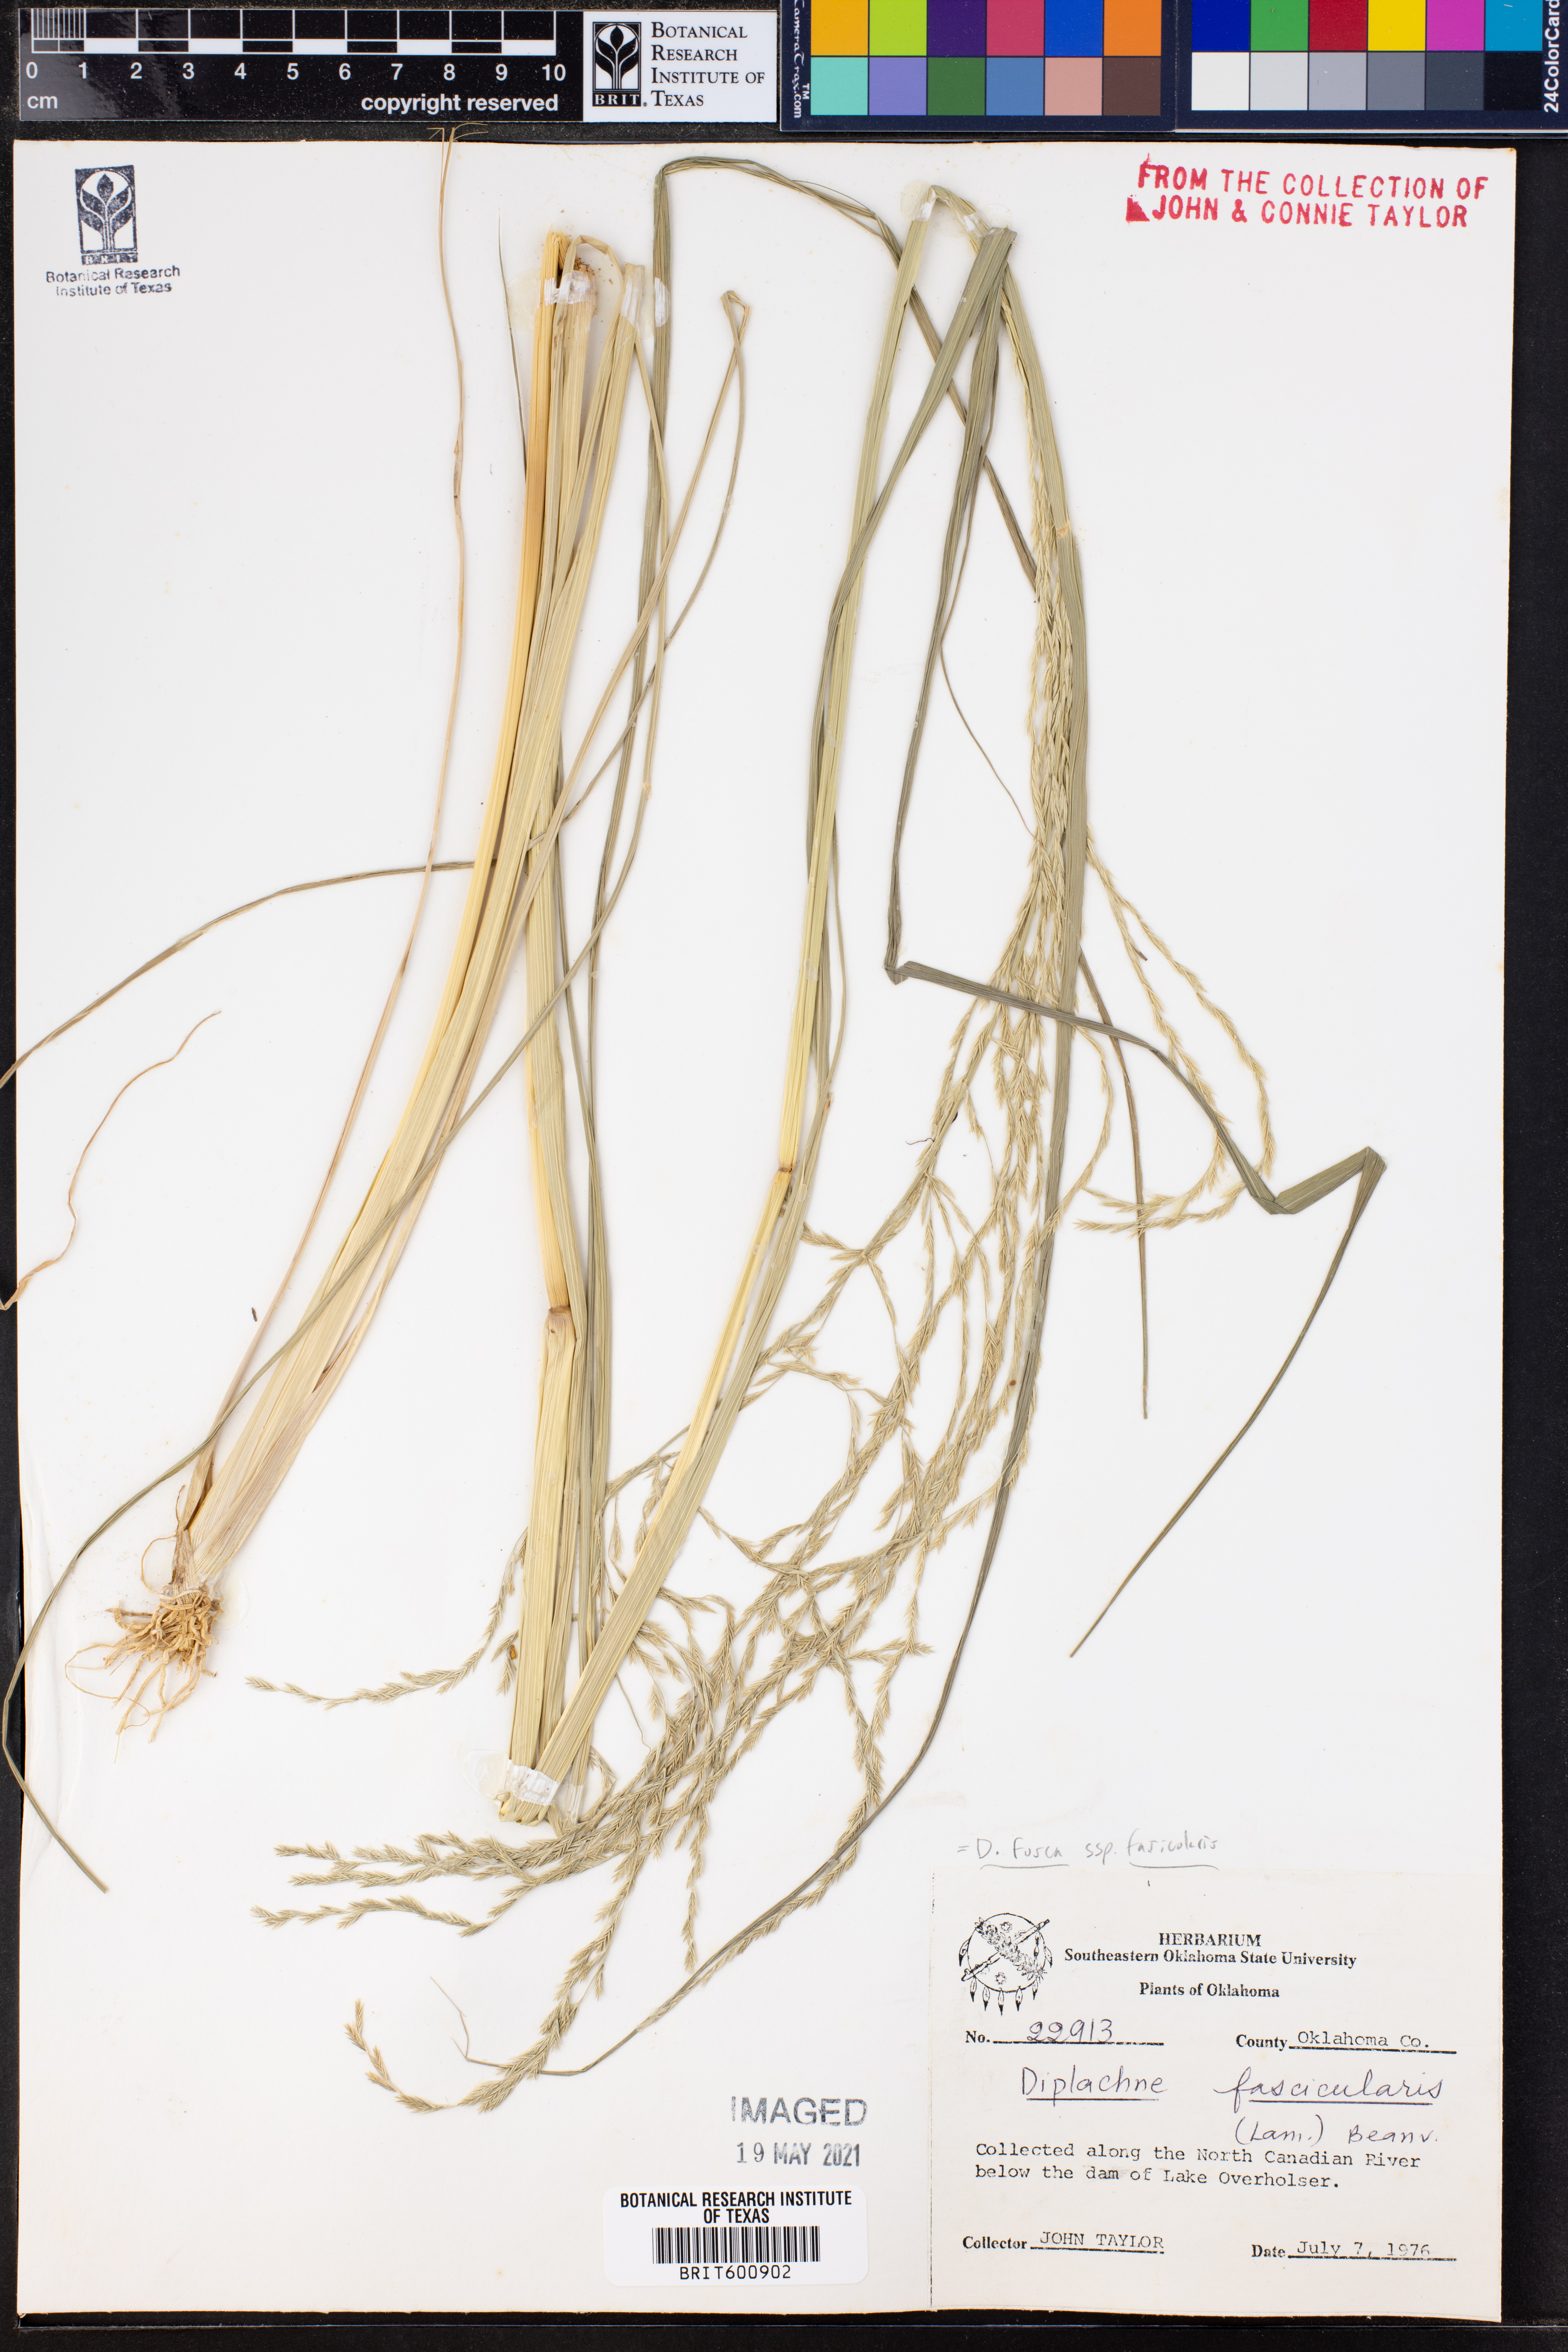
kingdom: Plantae
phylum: Tracheophyta
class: Liliopsida
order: Poales
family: Poaceae
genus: Diplachne
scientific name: Diplachne fusca
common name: Brown beetle grass
